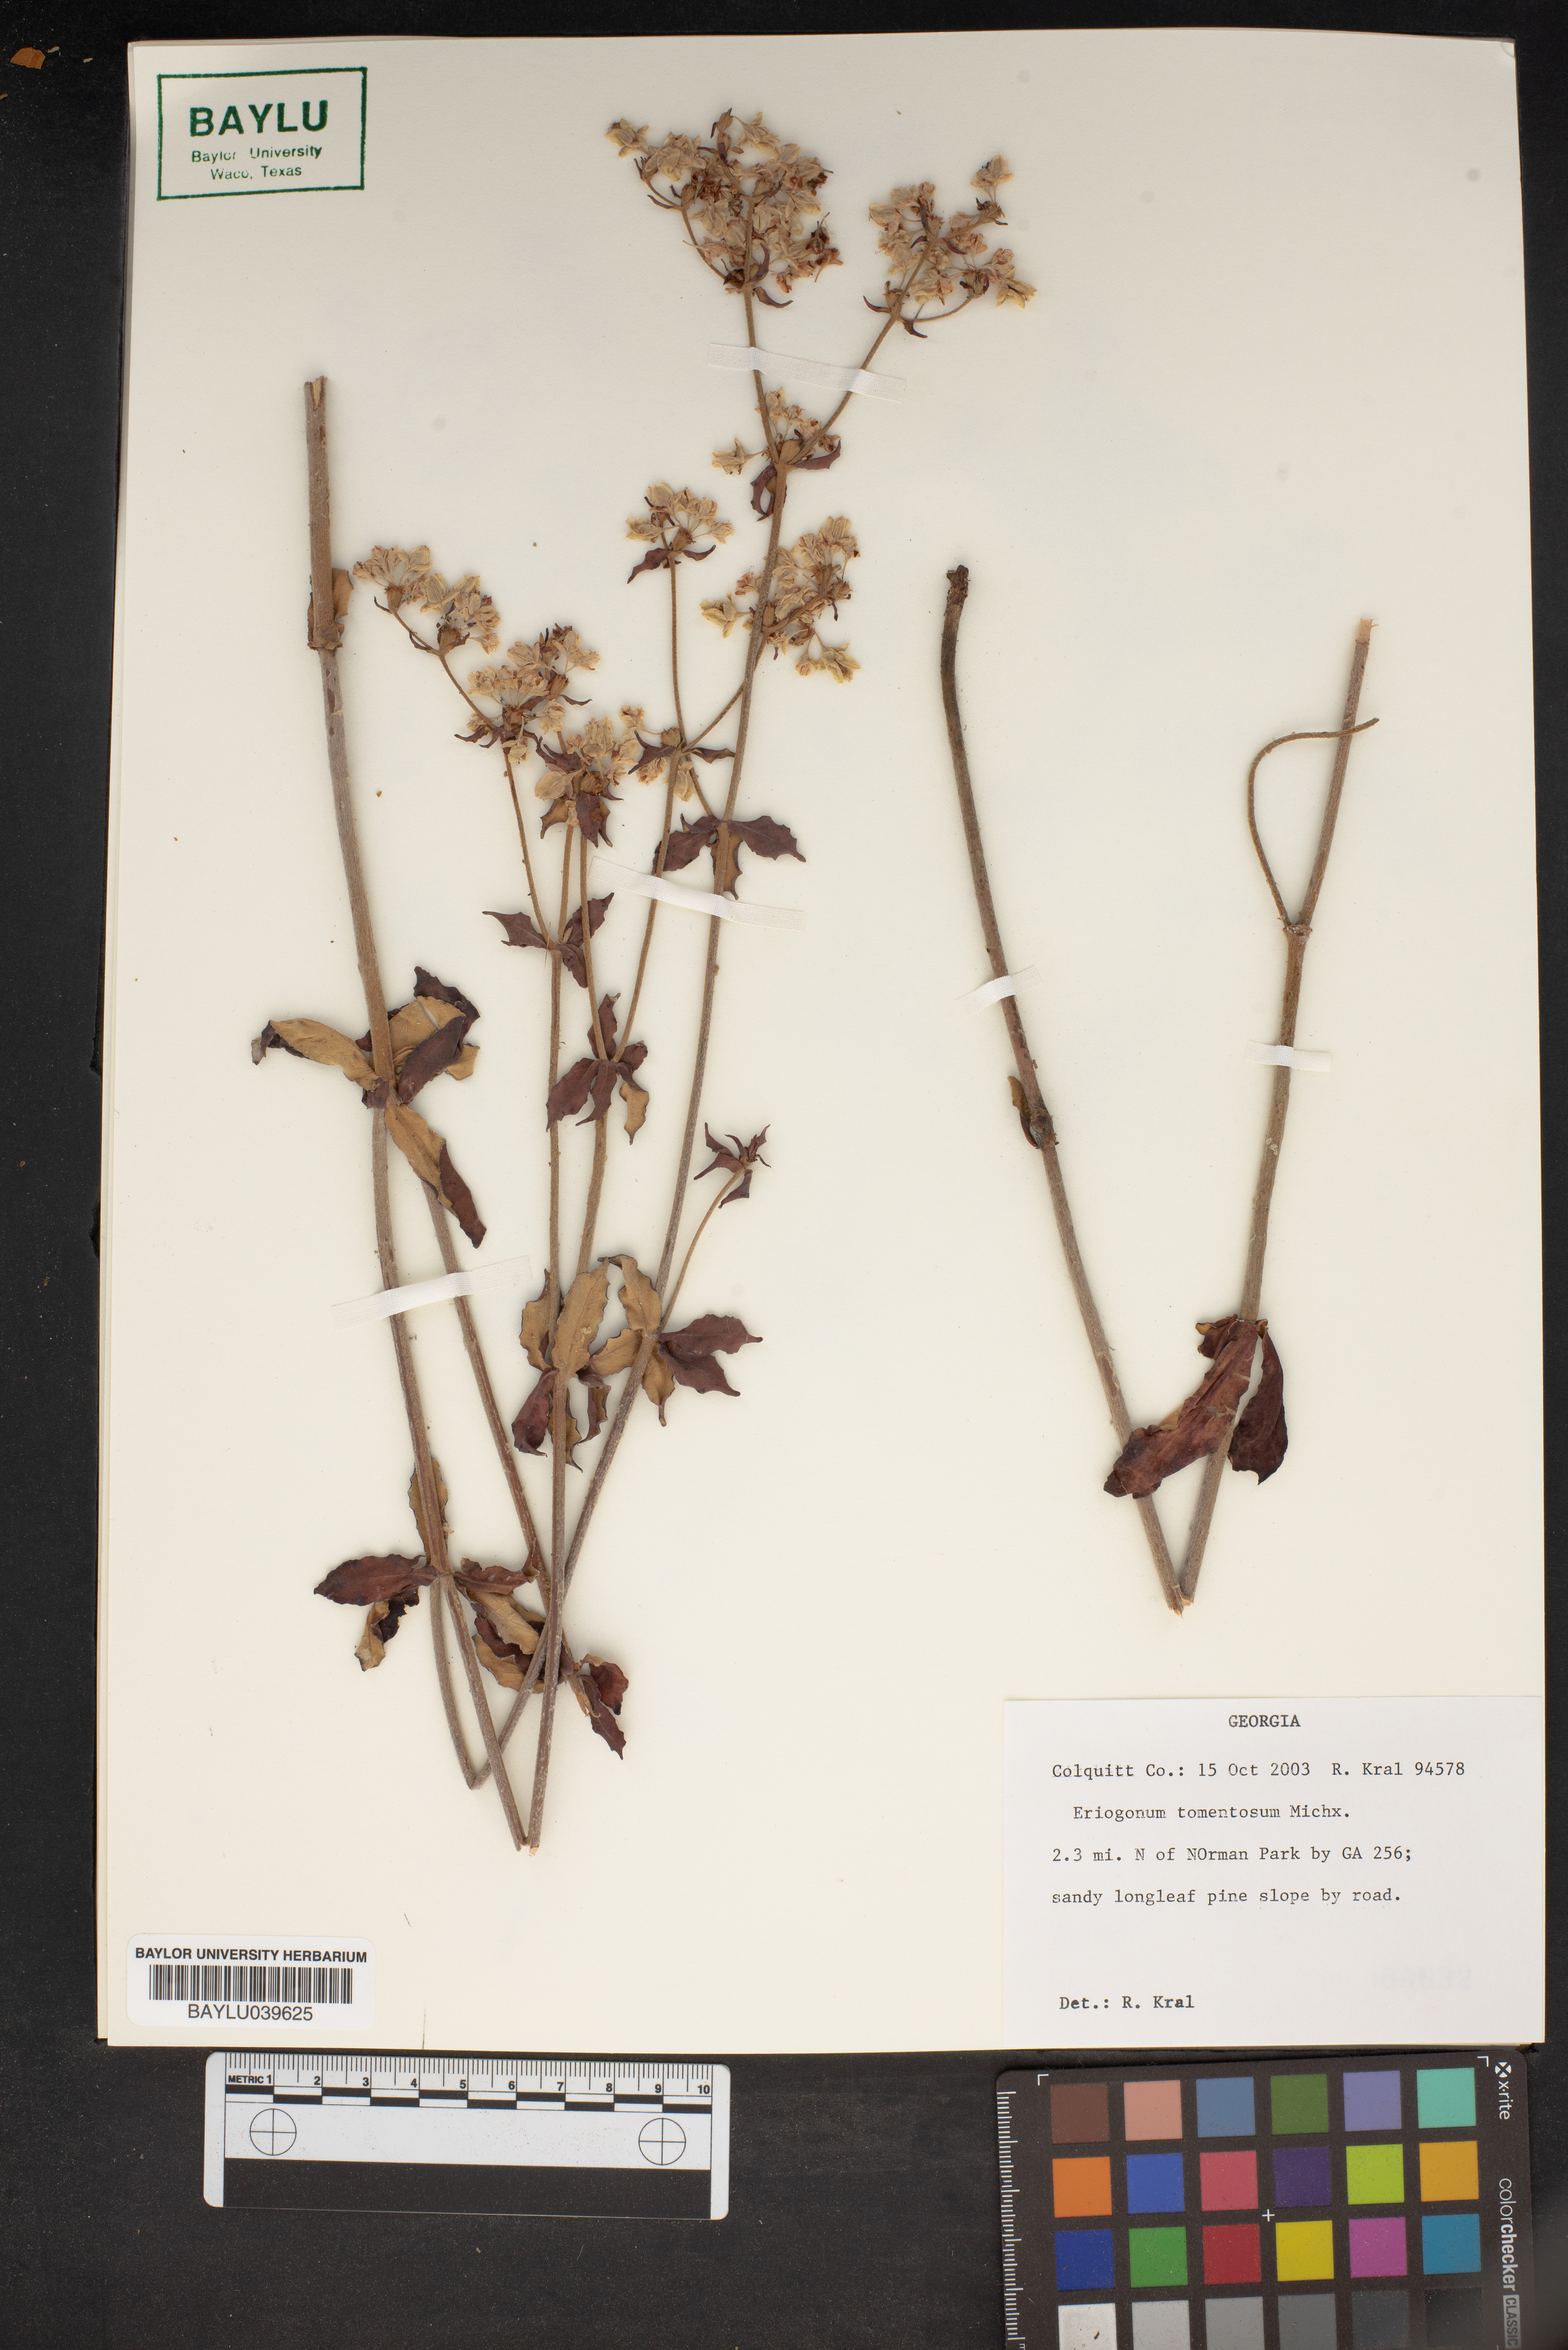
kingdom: Plantae
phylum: Tracheophyta
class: Magnoliopsida
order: Caryophyllales
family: Polygonaceae
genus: Eriogonum
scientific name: Eriogonum tomentosum
